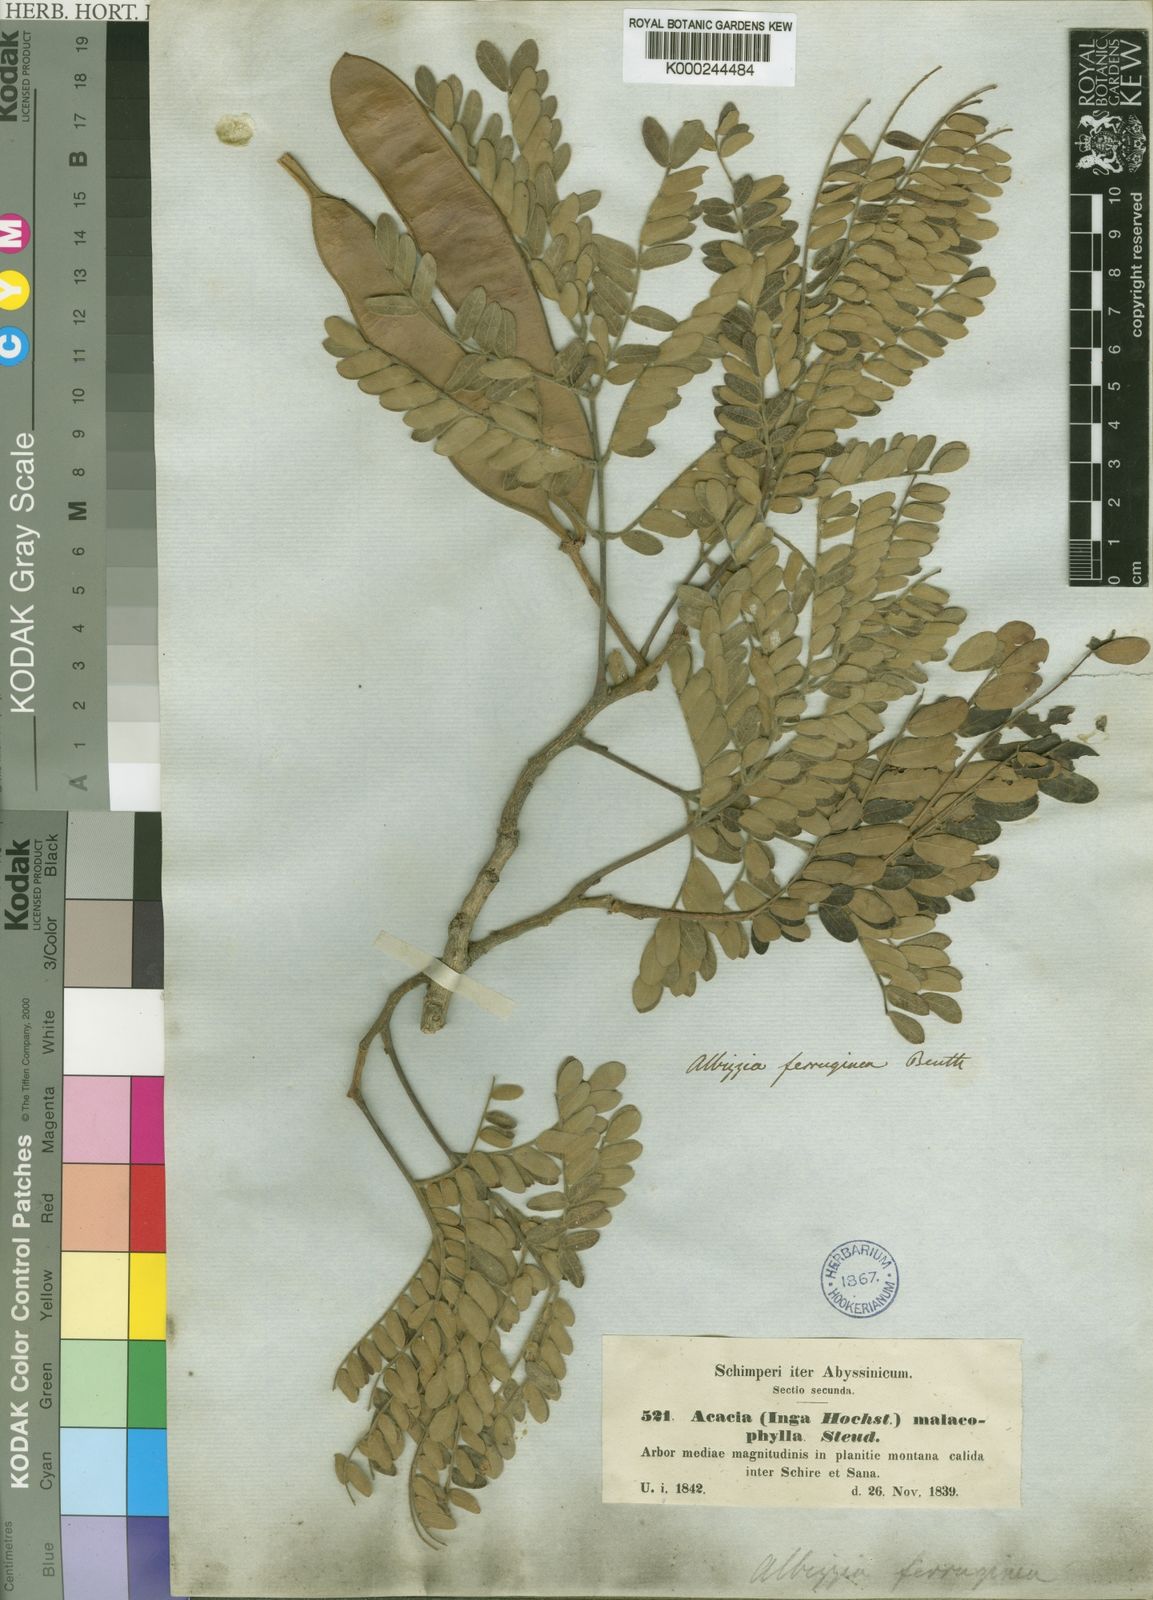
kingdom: Plantae
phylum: Tracheophyta
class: Magnoliopsida
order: Fabales
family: Fabaceae
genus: Albizia
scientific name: Albizia malacophylla
